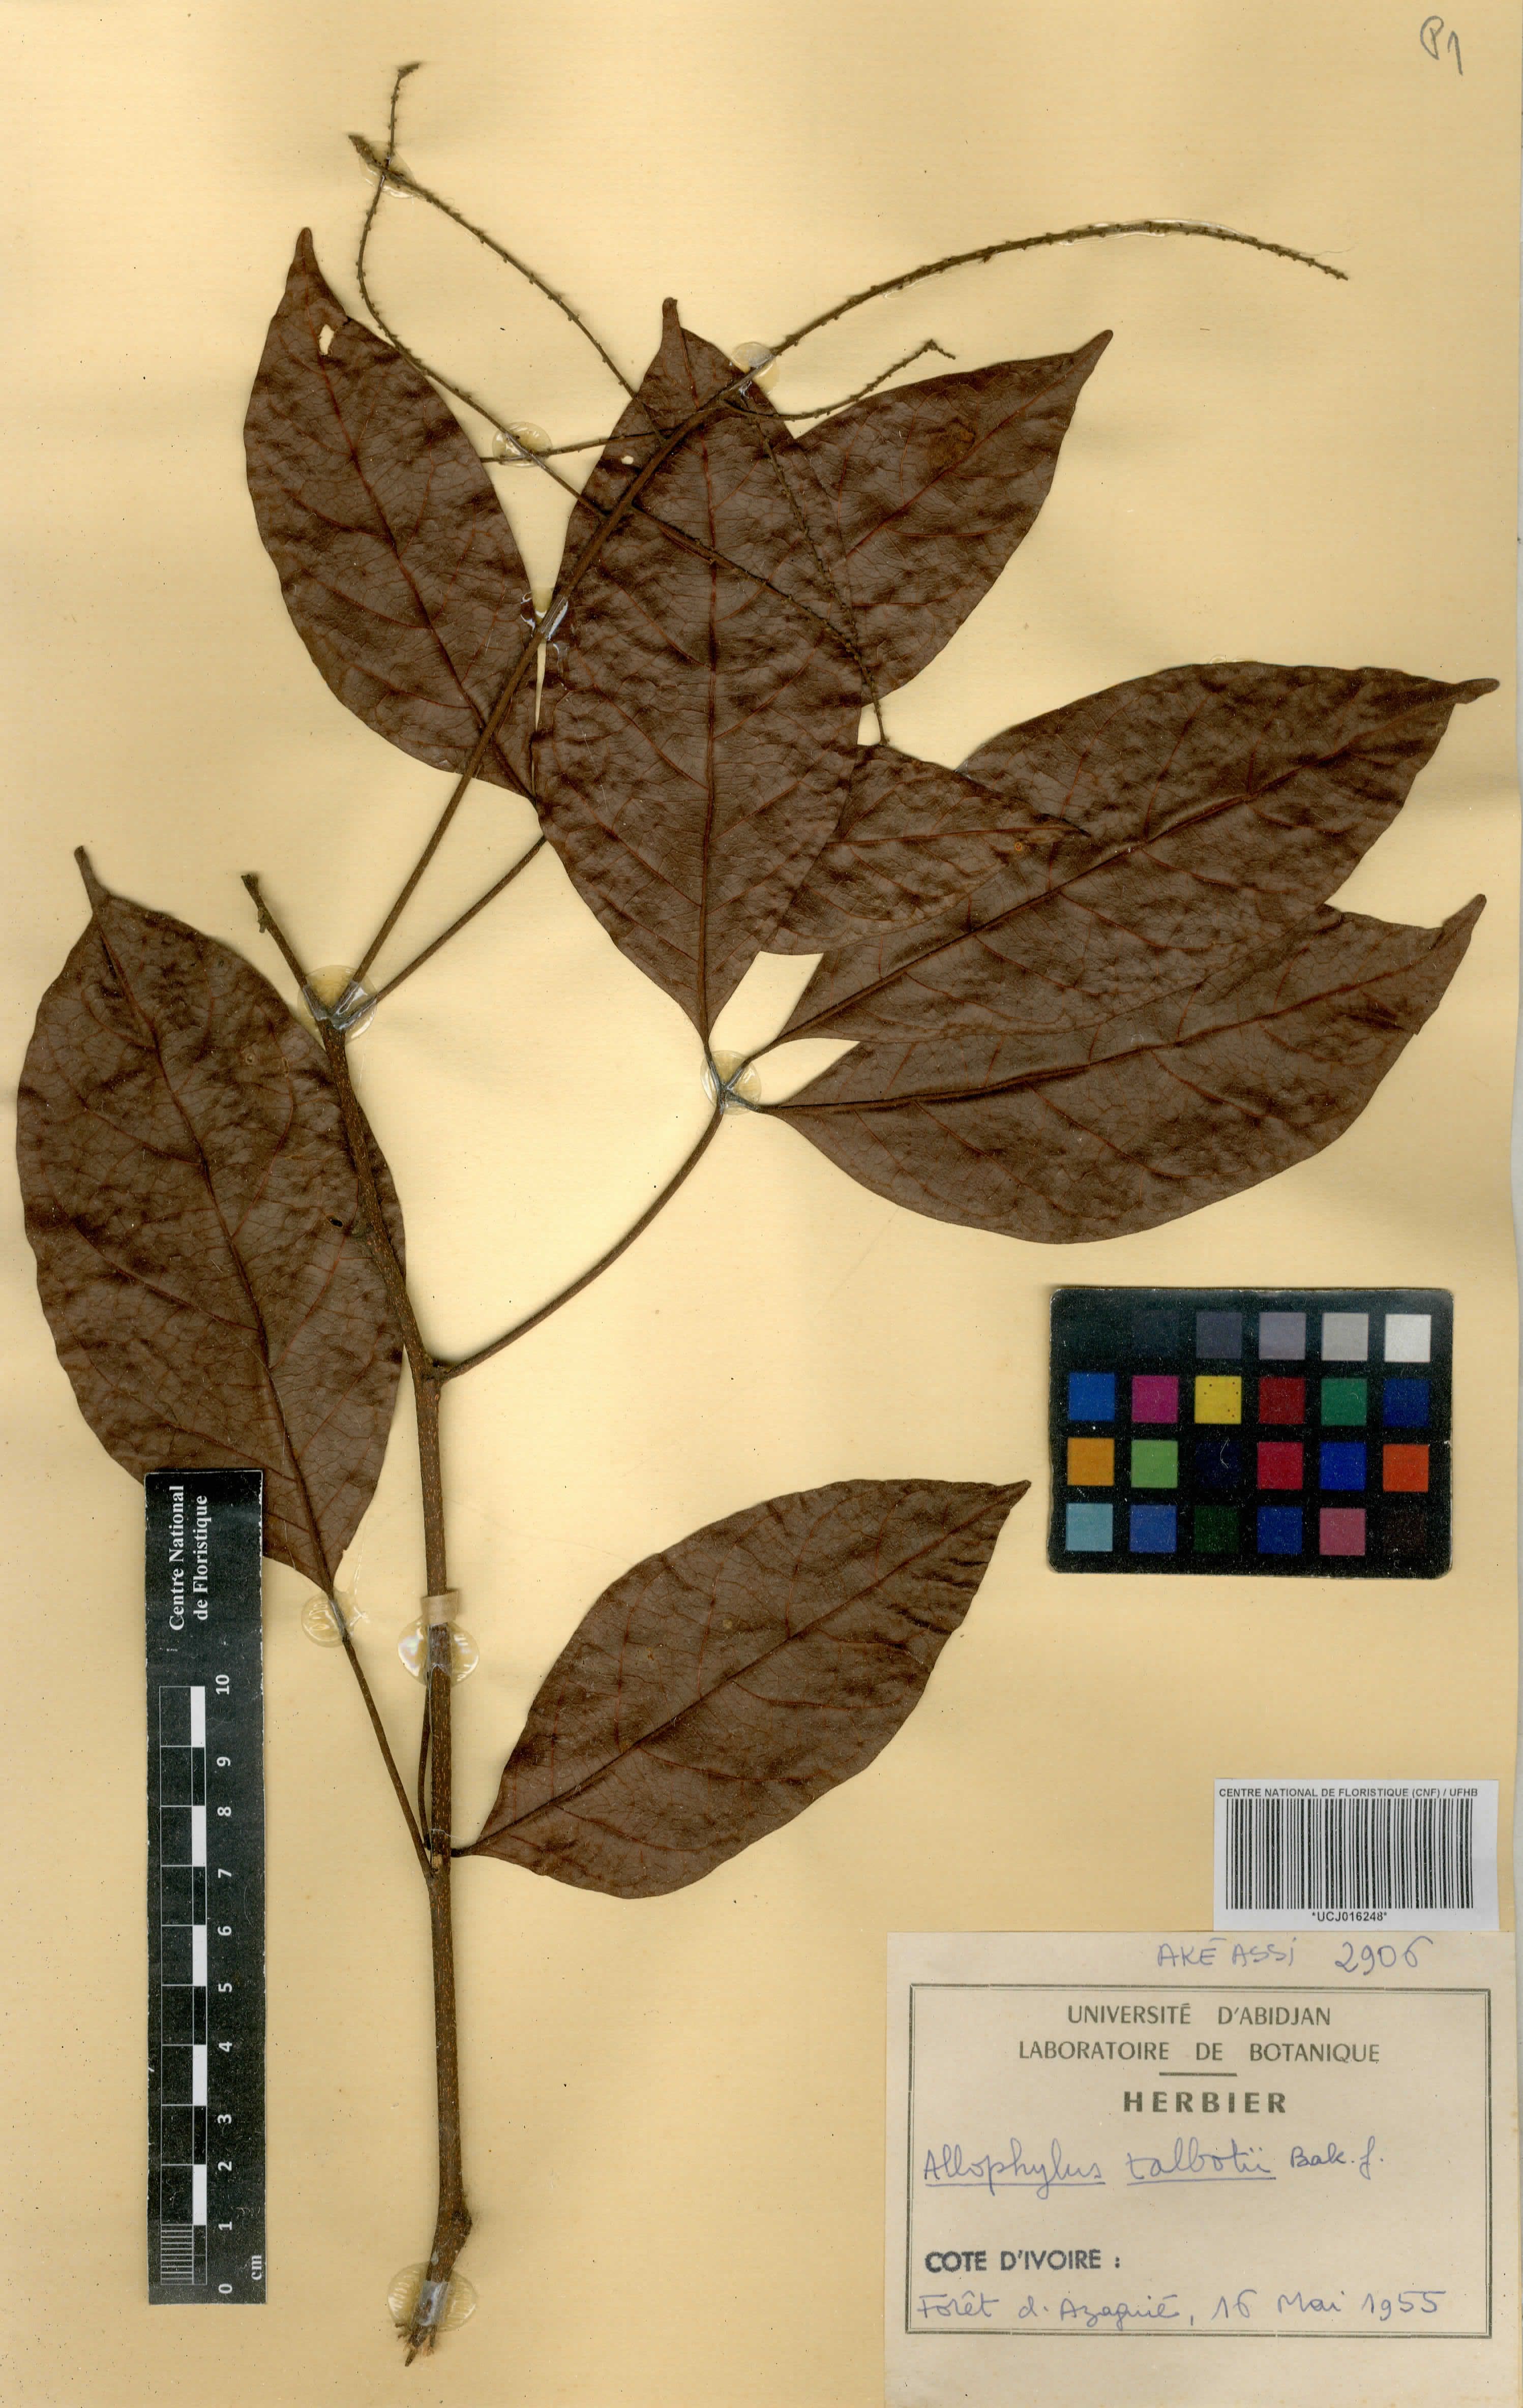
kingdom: Plantae
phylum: Tracheophyta
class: Magnoliopsida
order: Sapindales
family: Sapindaceae
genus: Allophylus
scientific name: Allophylus talbotii
